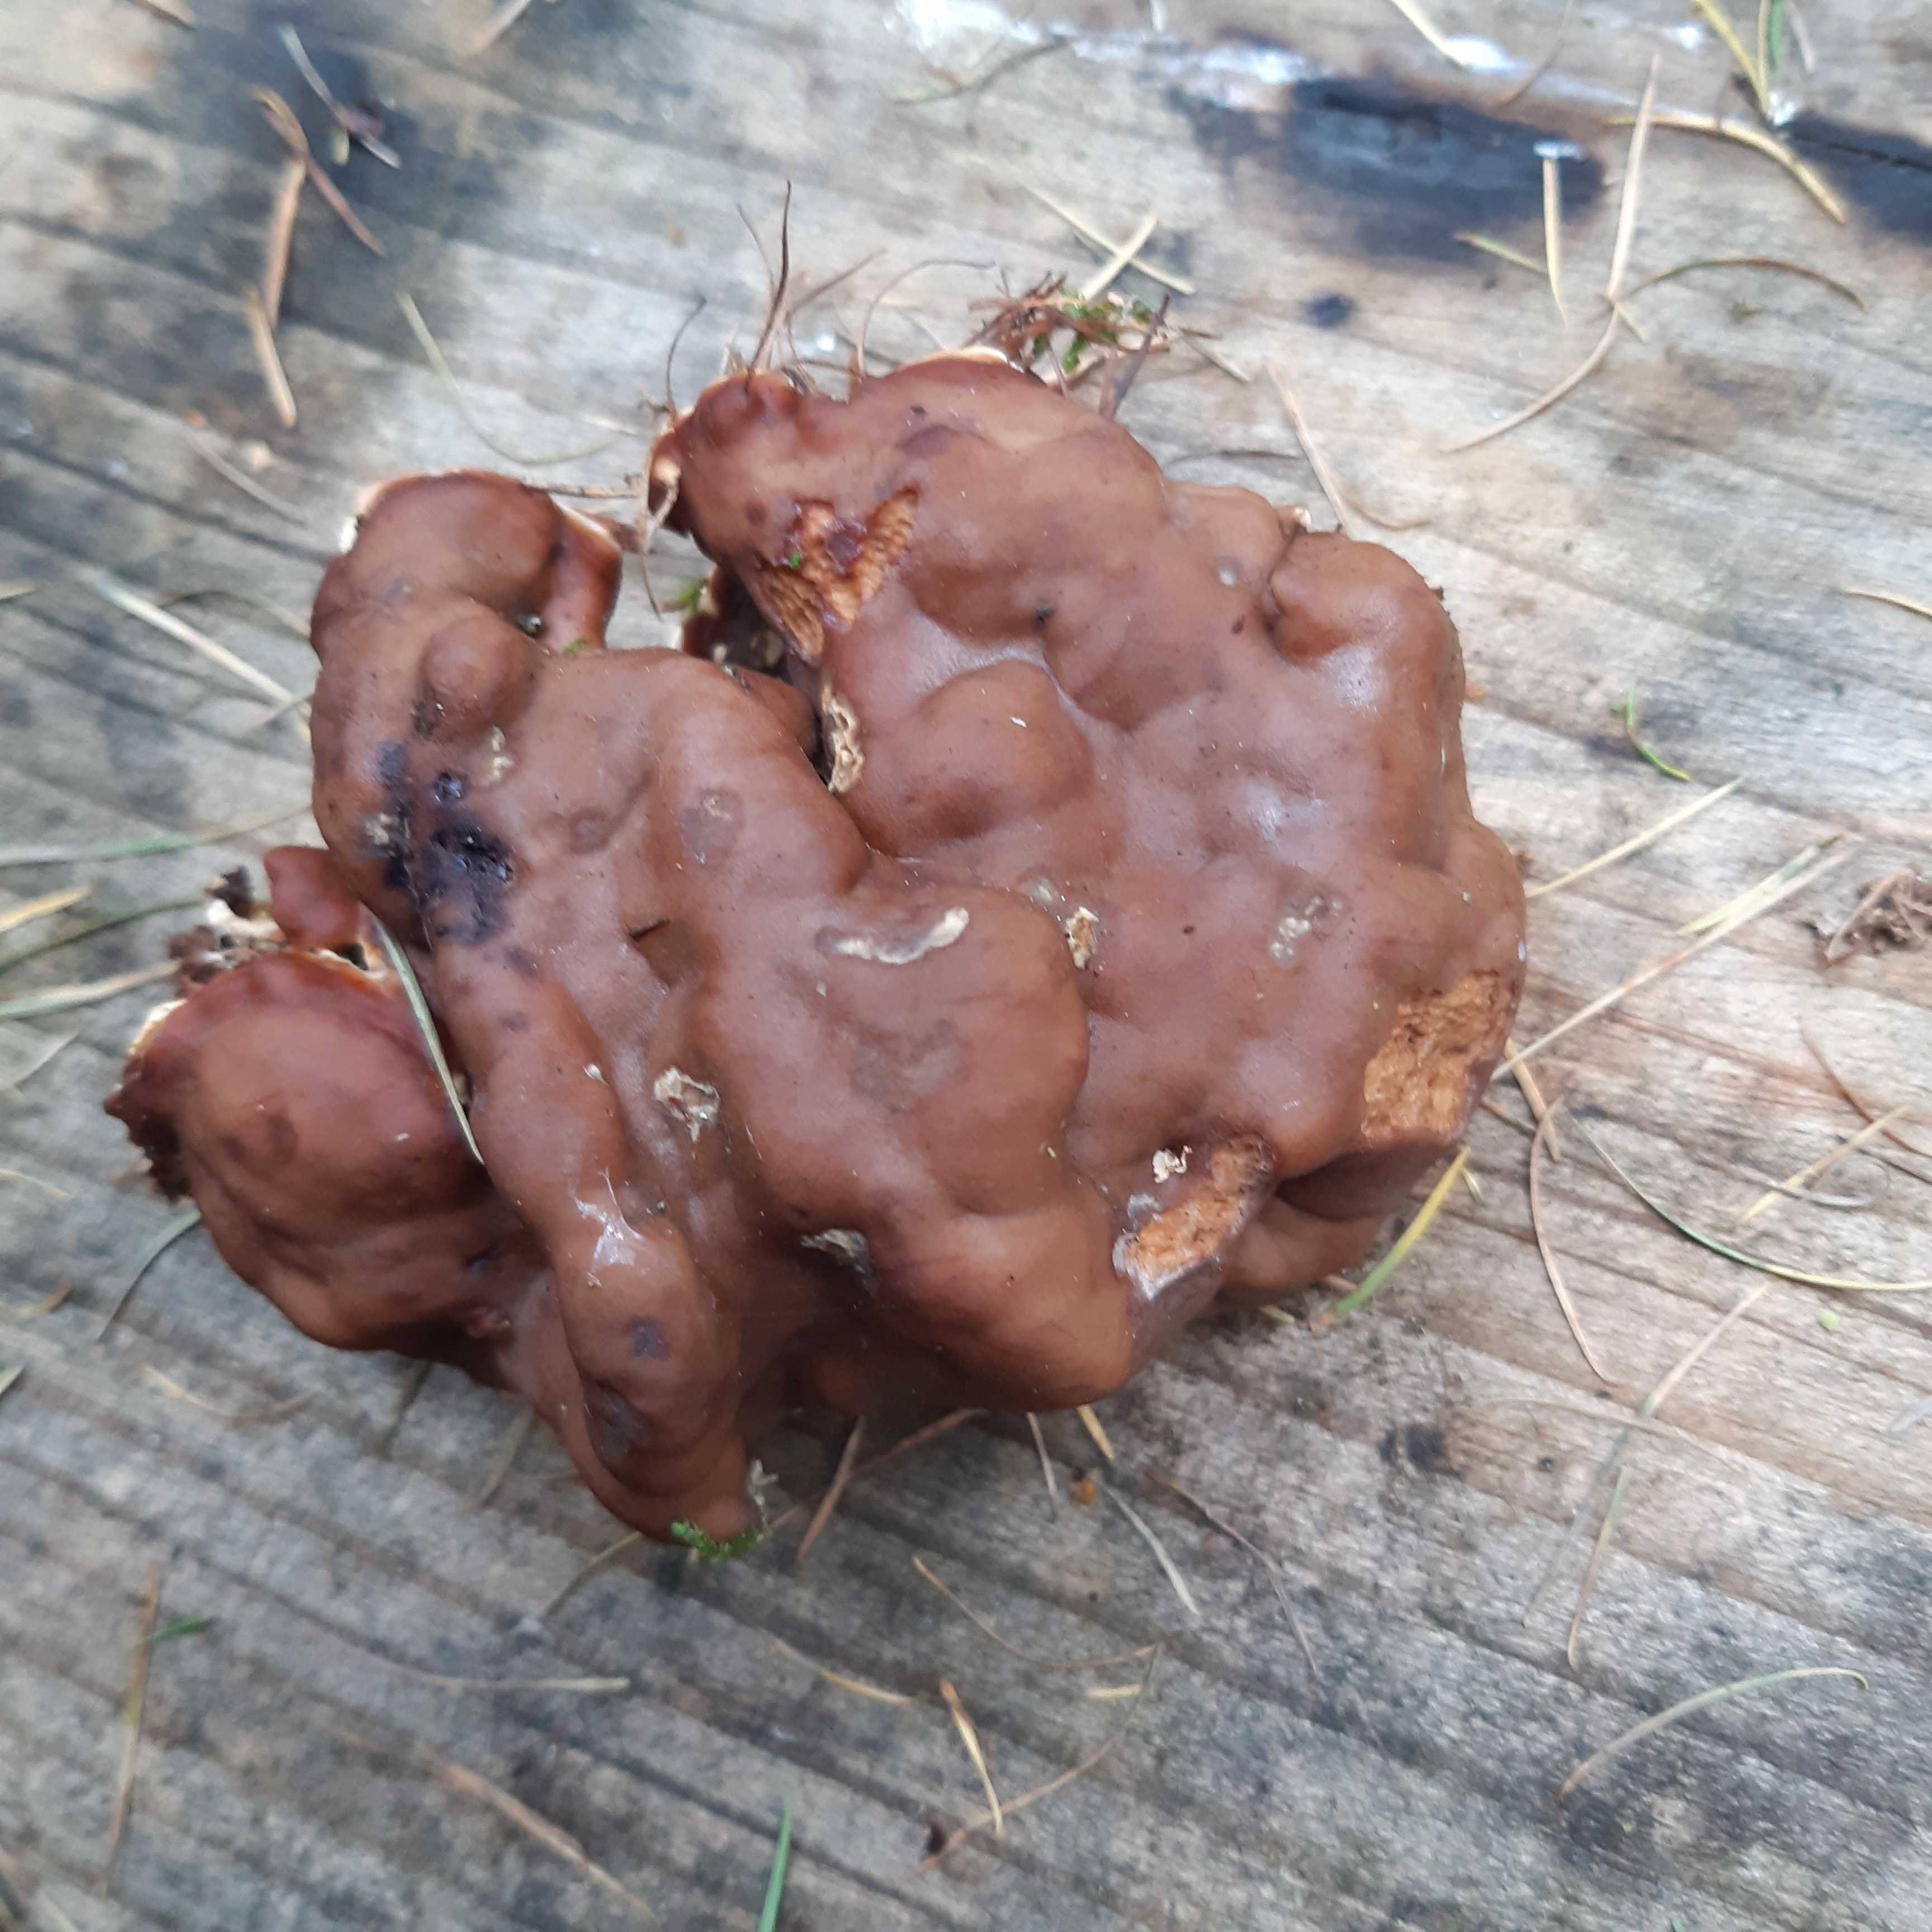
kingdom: Fungi
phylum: Ascomycota
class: Pezizomycetes
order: Pezizales
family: Rhizinaceae
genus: Rhizina
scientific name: Rhizina undulata
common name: rodmorkel
